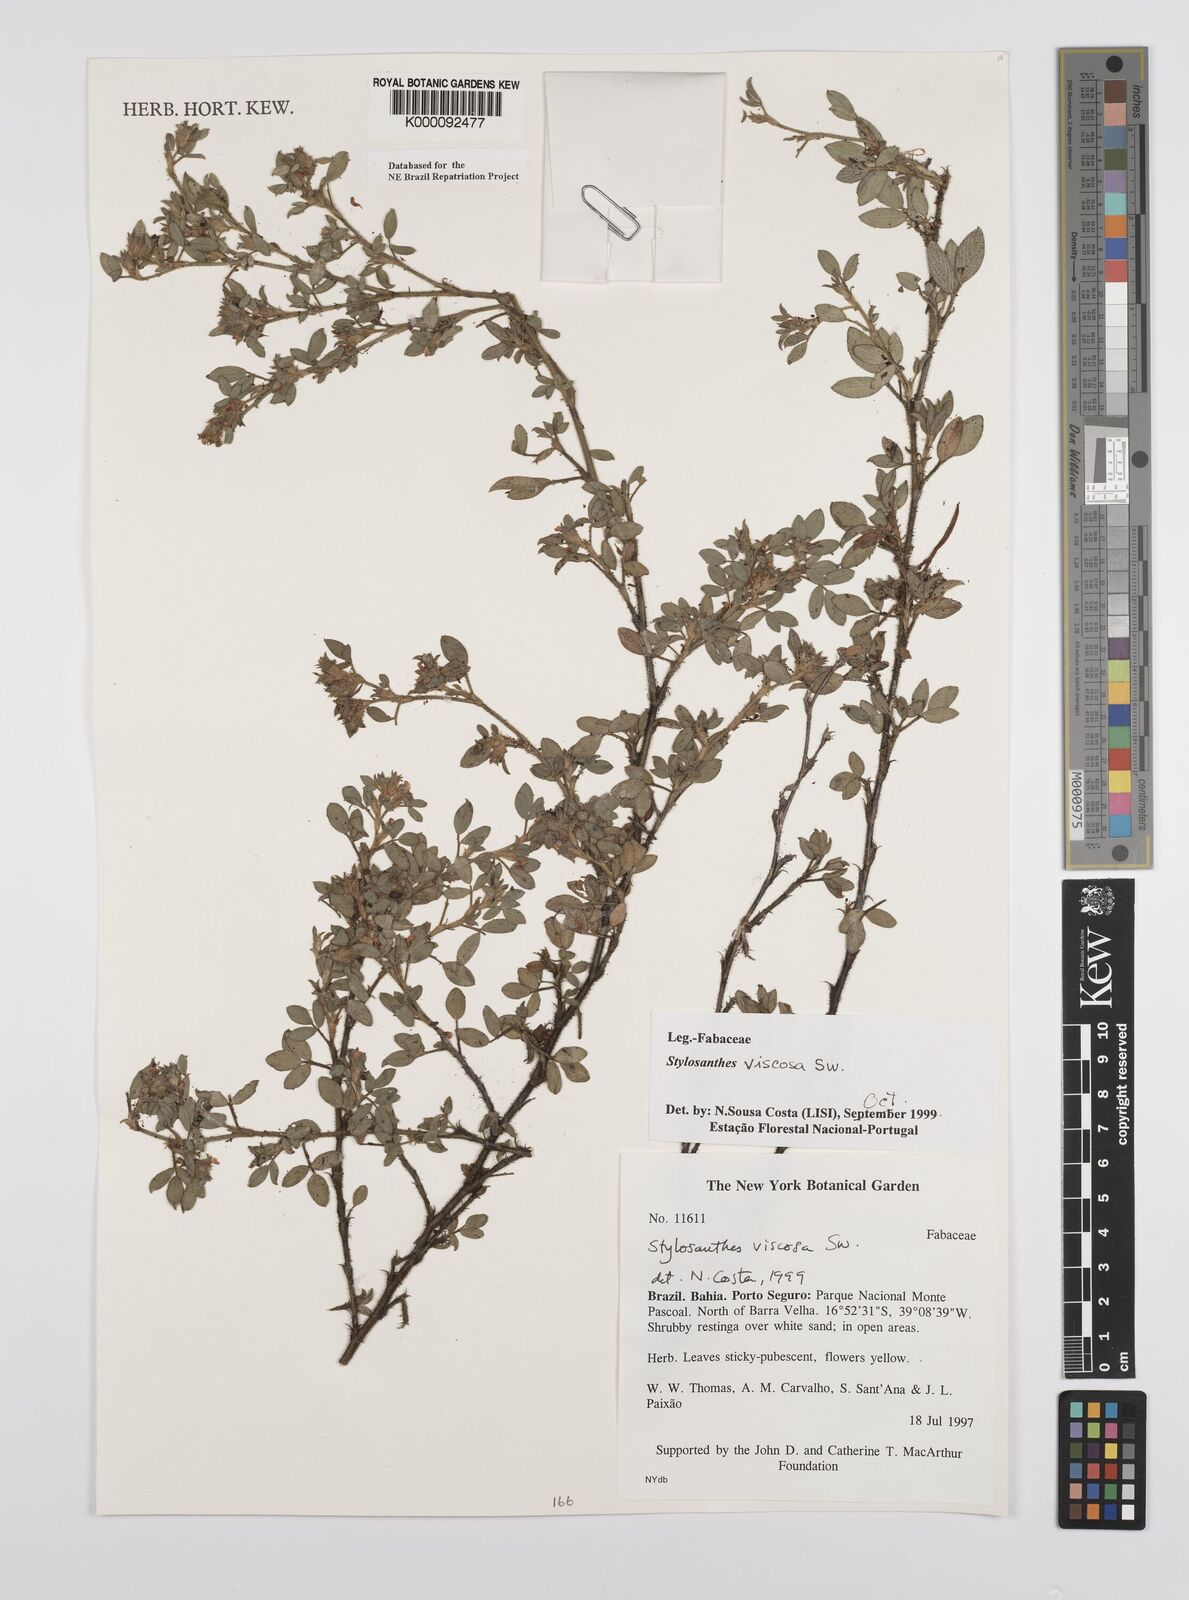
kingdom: Plantae
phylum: Tracheophyta
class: Magnoliopsida
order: Fabales
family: Fabaceae
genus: Stylosanthes
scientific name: Stylosanthes viscosa
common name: Viscid pencil-flower
